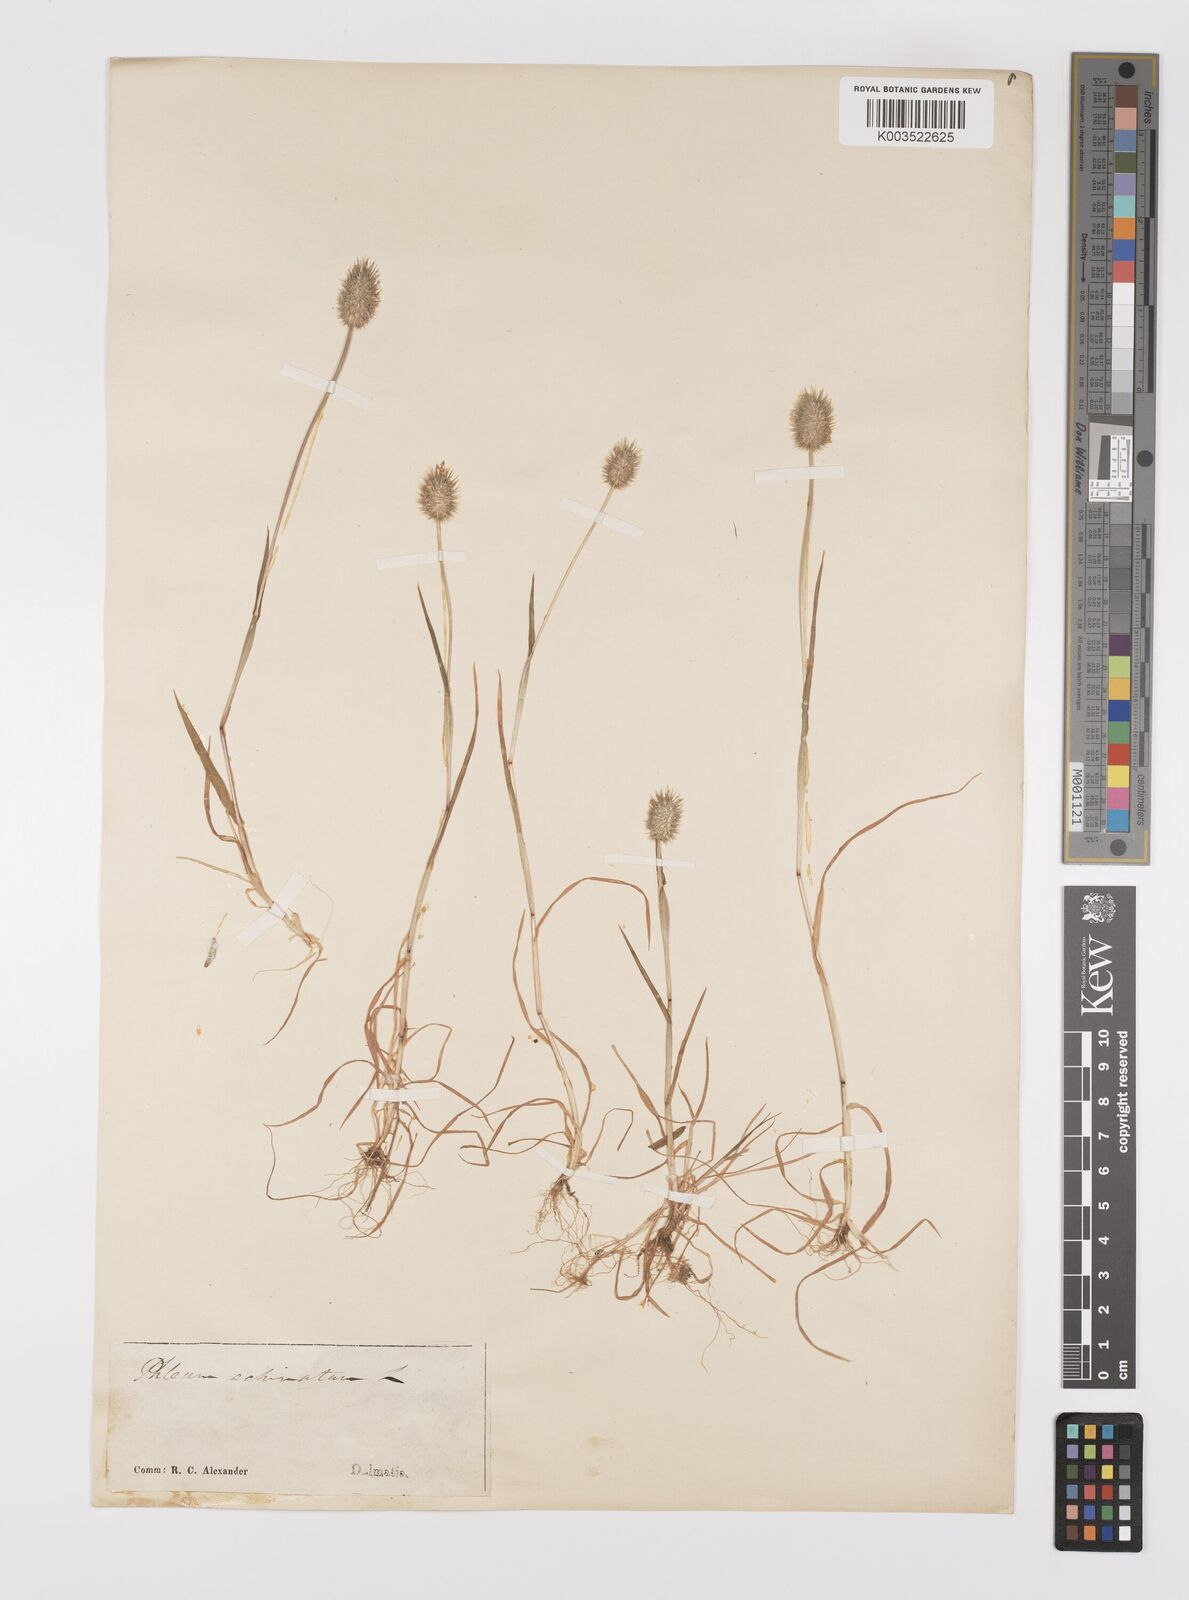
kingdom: Plantae
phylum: Tracheophyta
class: Liliopsida
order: Poales
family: Poaceae
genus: Phleum
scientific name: Phleum echinatum
